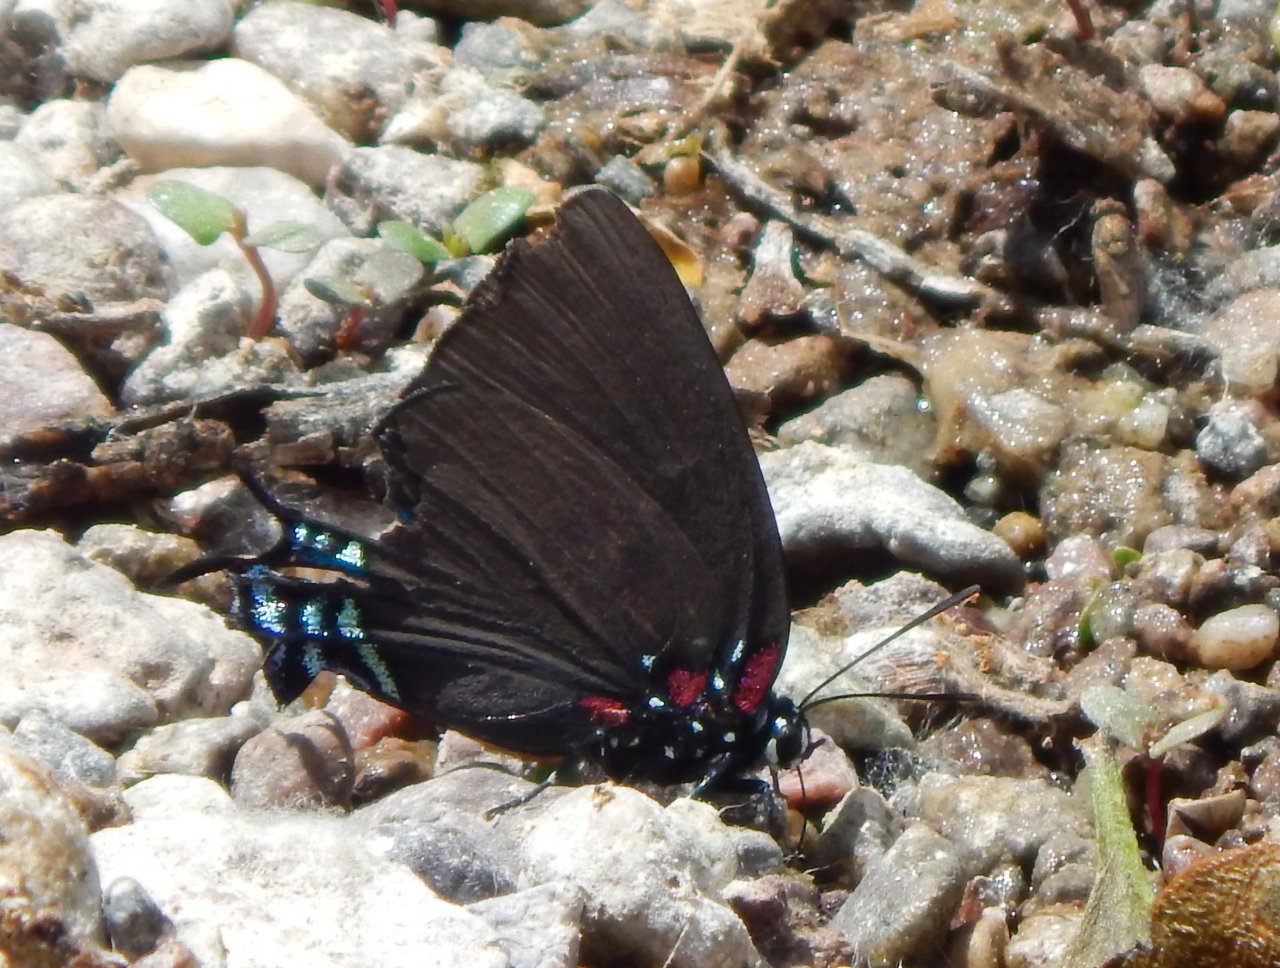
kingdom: Animalia
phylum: Arthropoda
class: Insecta
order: Lepidoptera
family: Lycaenidae
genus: Atlides
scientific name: Atlides halesus
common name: Great Purple Hairstreak
